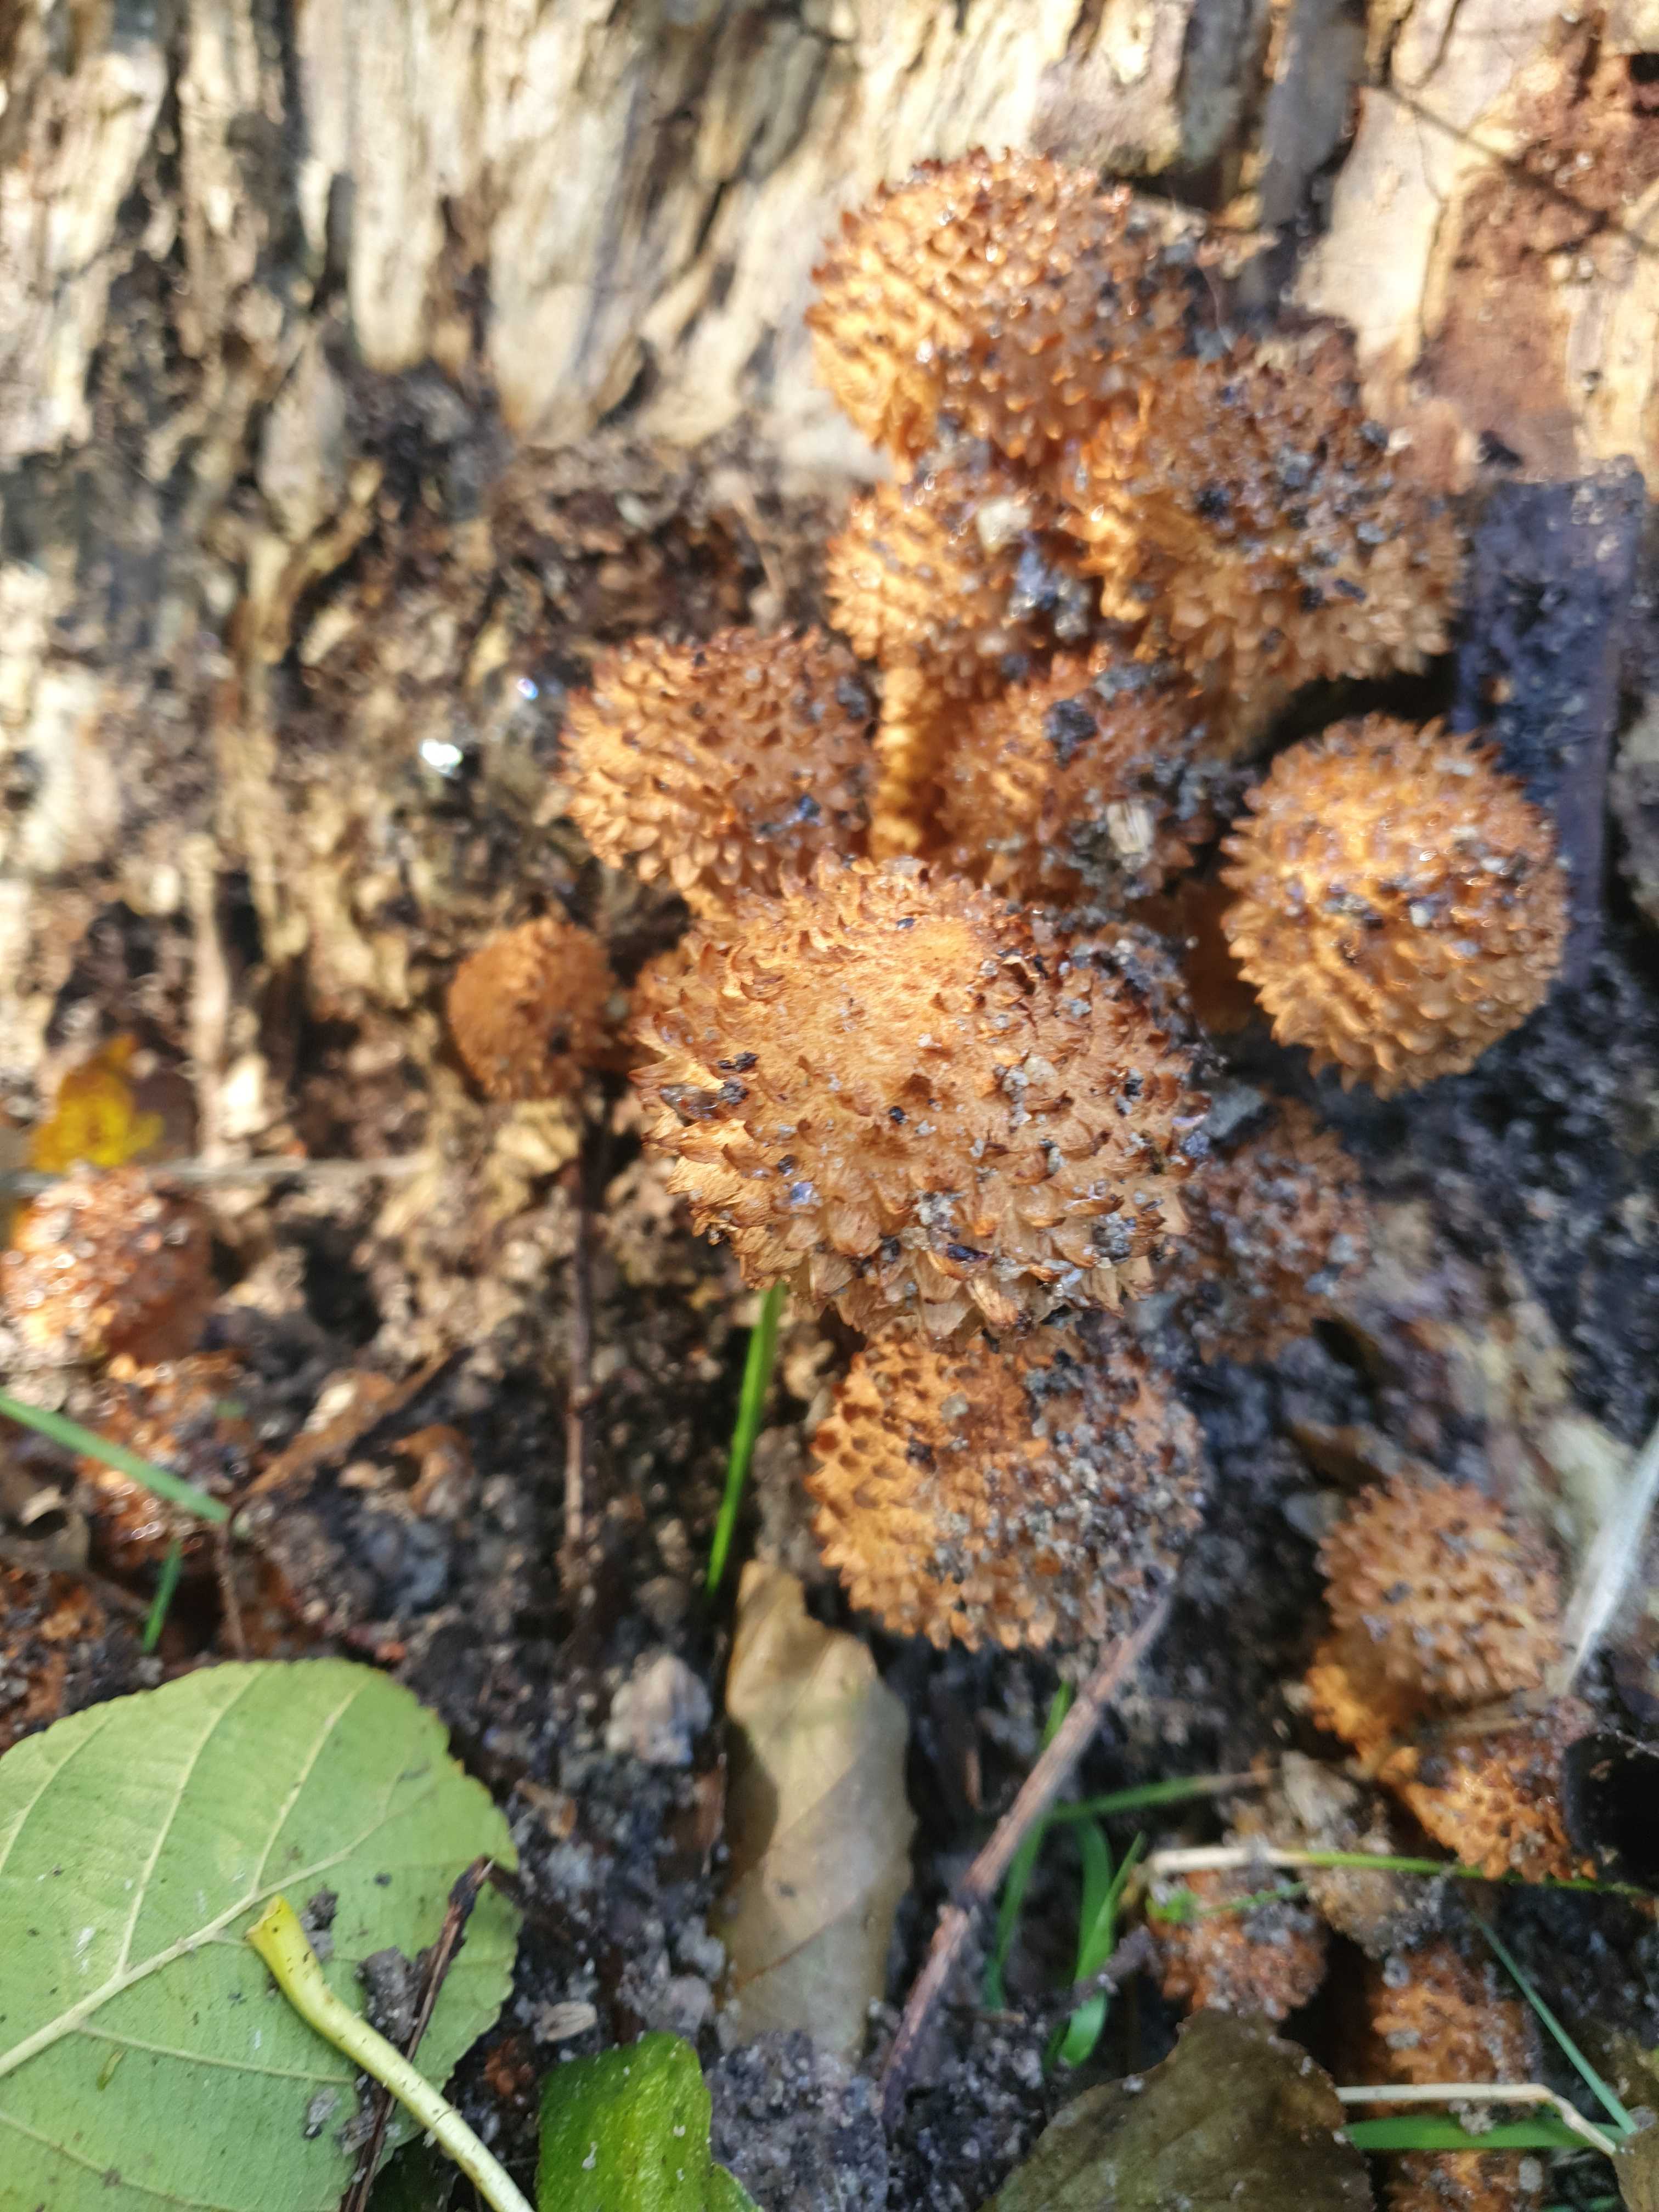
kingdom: Fungi
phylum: Basidiomycota
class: Agaricomycetes
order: Agaricales
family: Strophariaceae
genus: Pholiota
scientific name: Pholiota squarrosa
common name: krumskællet skælhat
